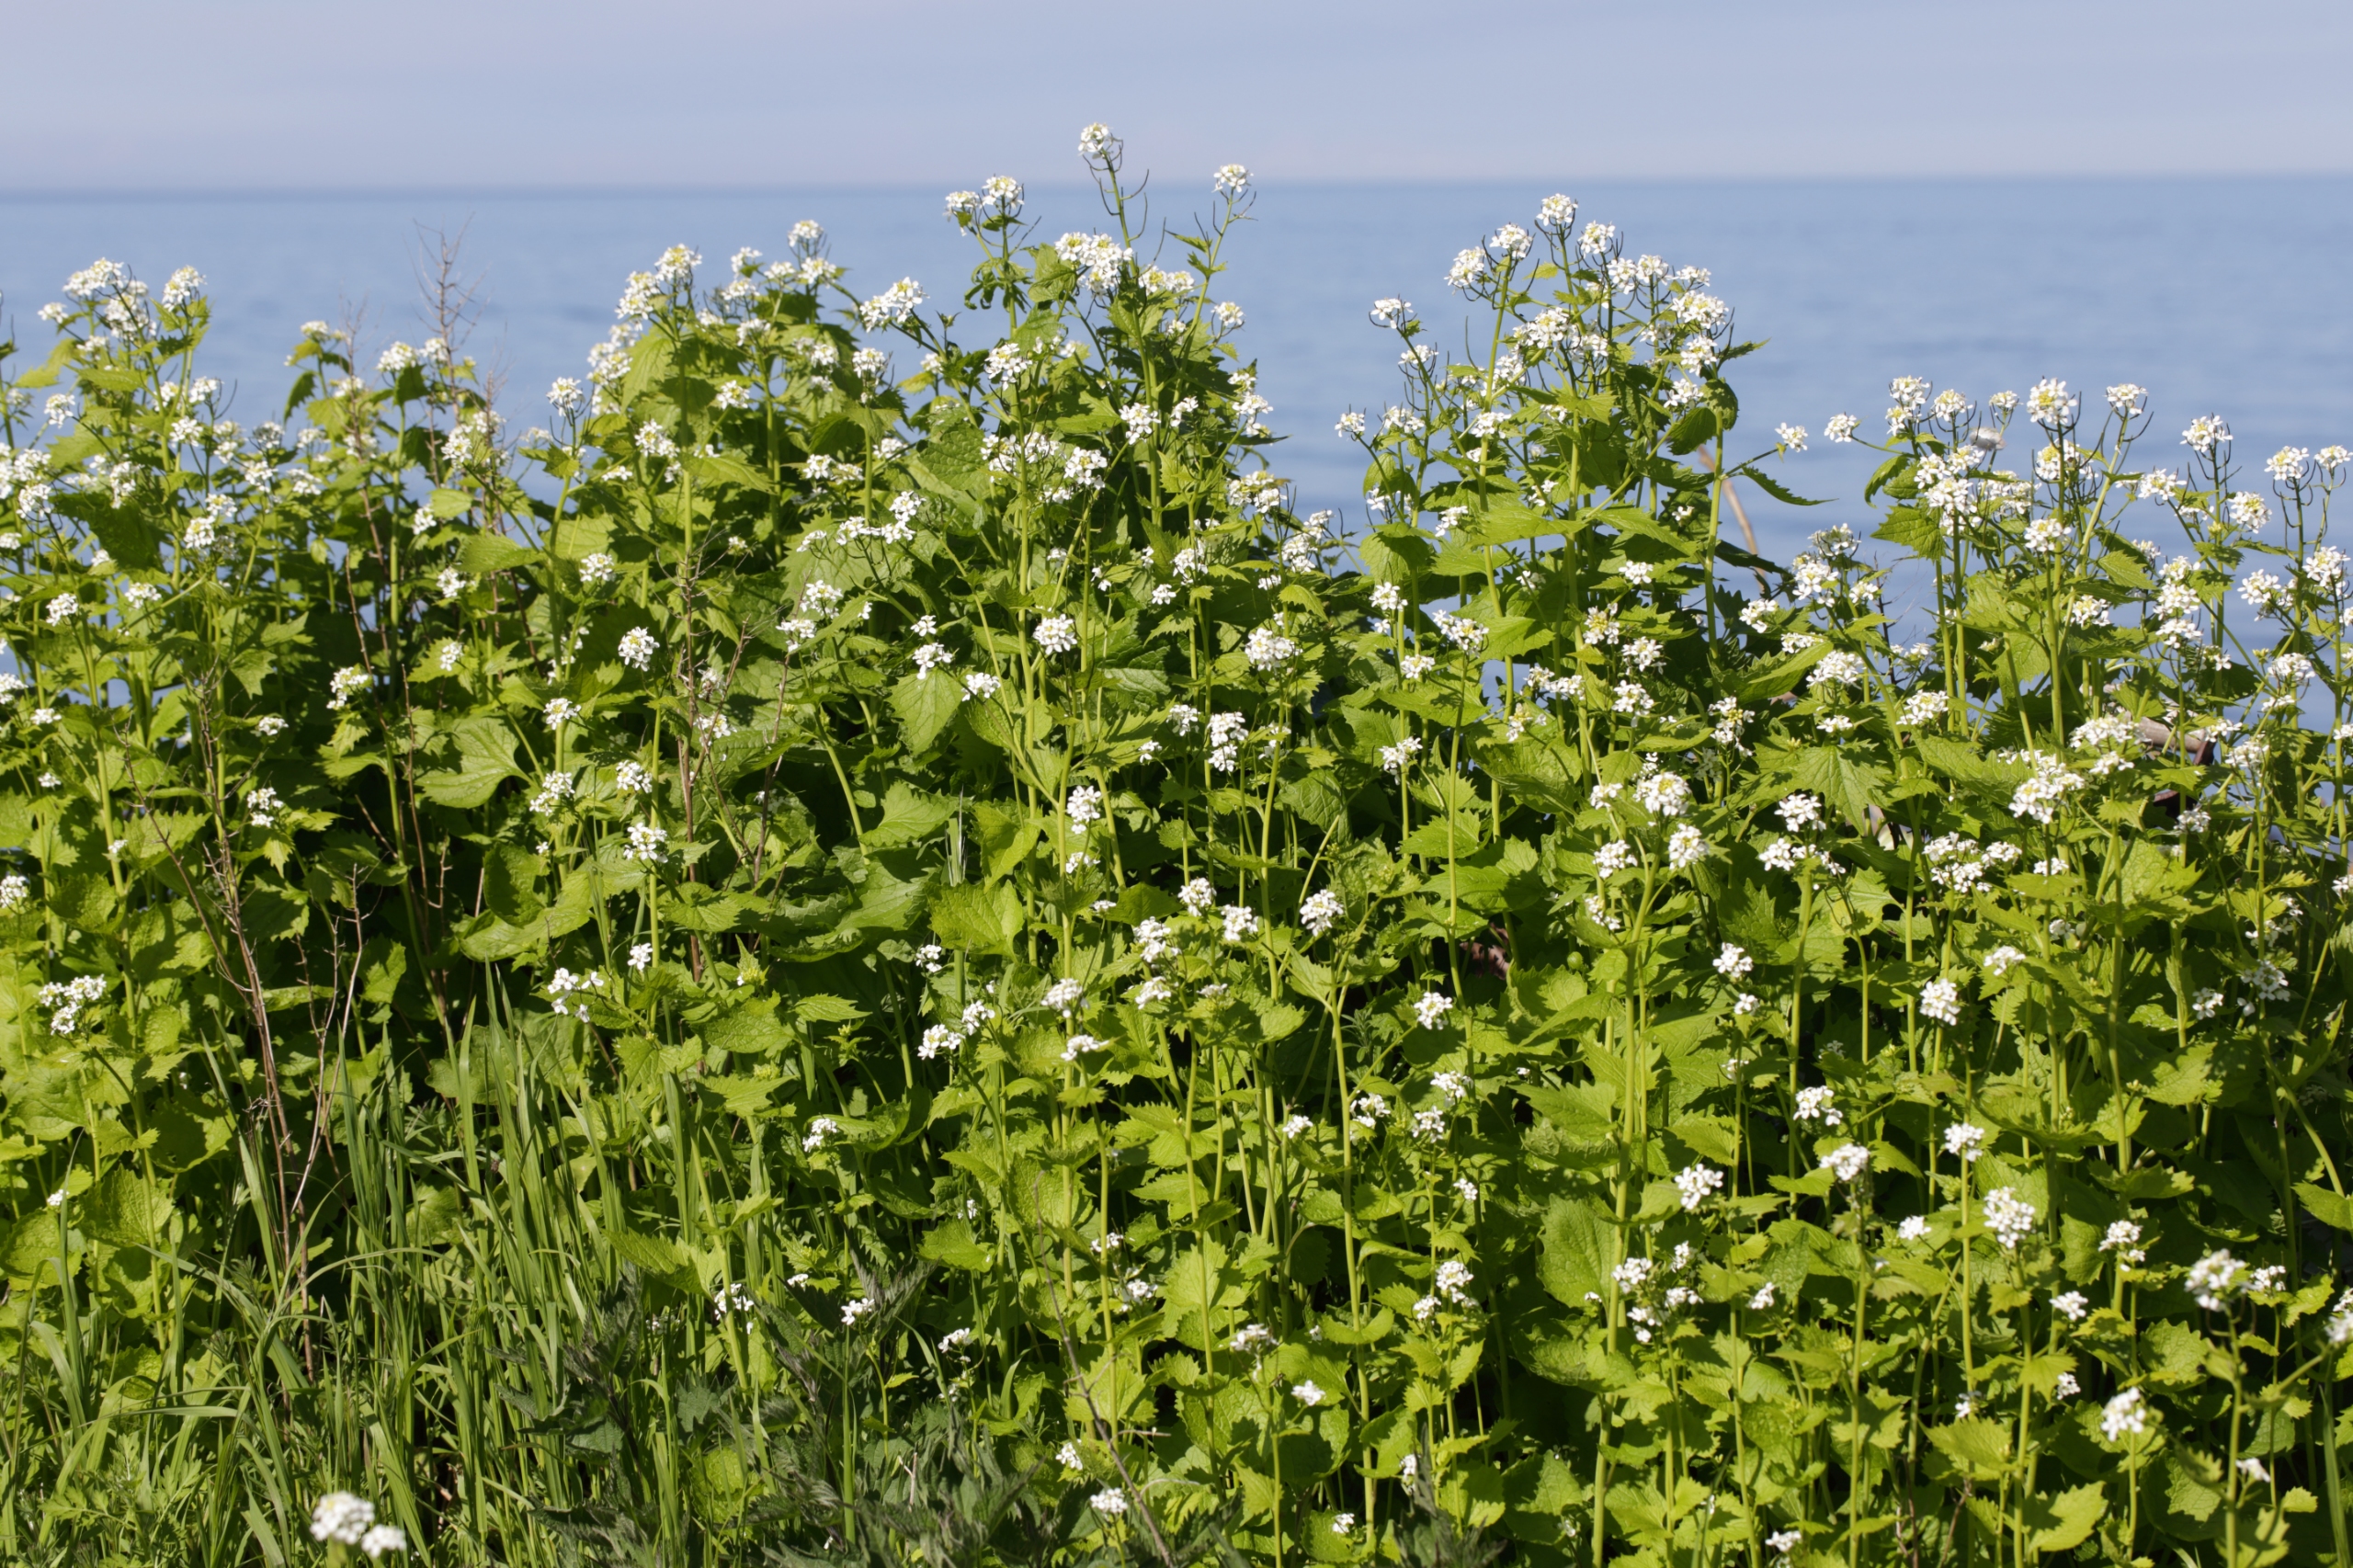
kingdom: Plantae
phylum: Tracheophyta
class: Magnoliopsida
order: Brassicales
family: Brassicaceae
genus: Alliaria
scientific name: Alliaria petiolata
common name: Løgkarse
